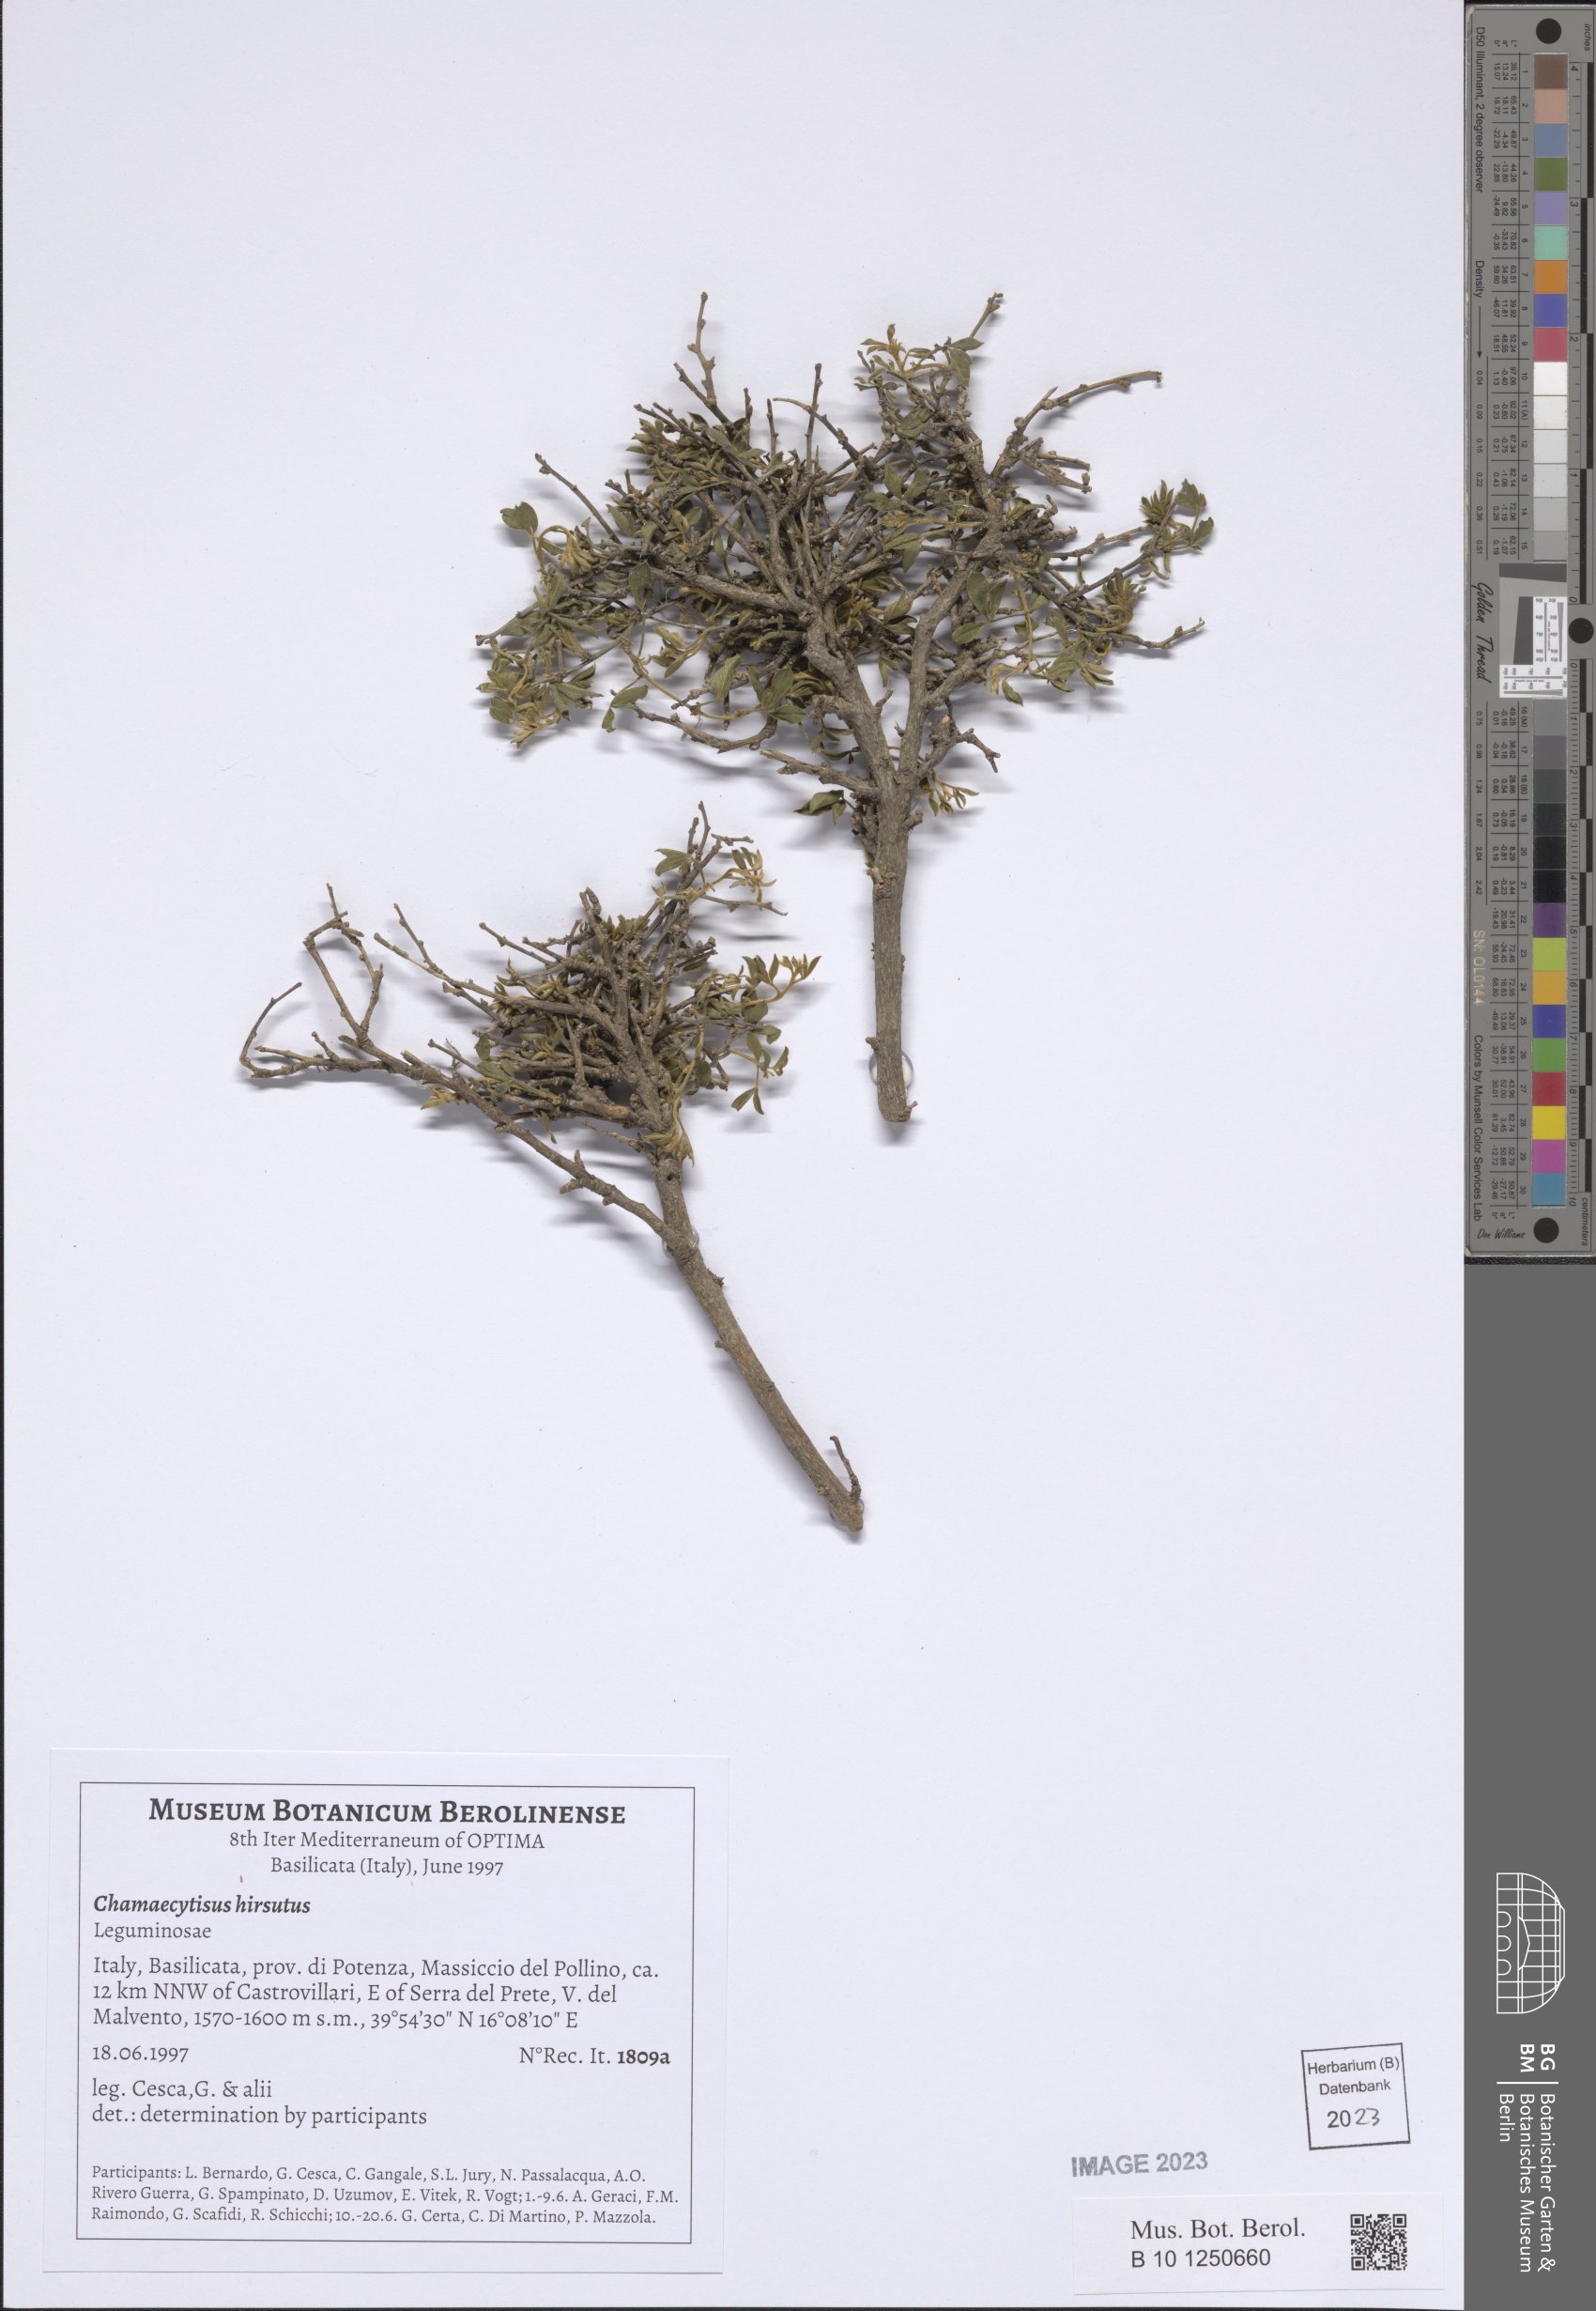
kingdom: Plantae
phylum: Tracheophyta
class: Magnoliopsida
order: Fabales
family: Fabaceae
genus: Chamaecytisus
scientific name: Chamaecytisus hirsutus
